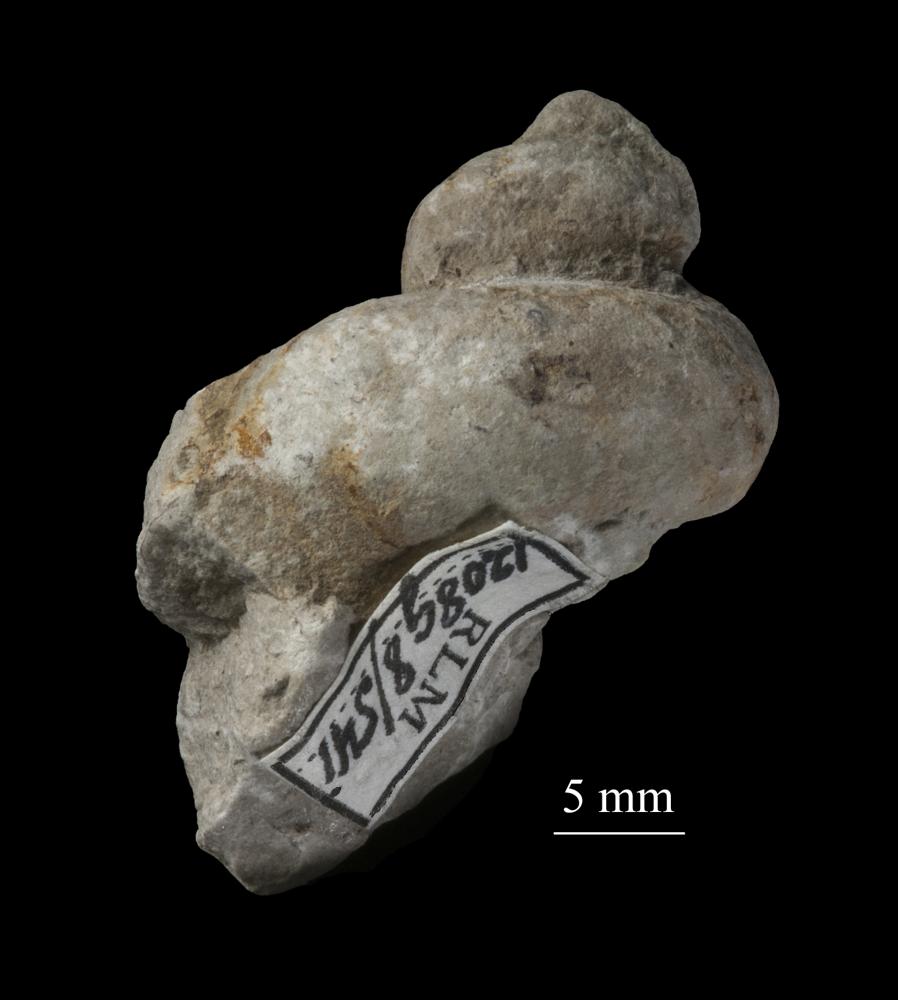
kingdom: Animalia
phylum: Mollusca
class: Gastropoda
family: Lophospiridae
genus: Loxoplocus
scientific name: Loxoplocus Worthenia vermetus
